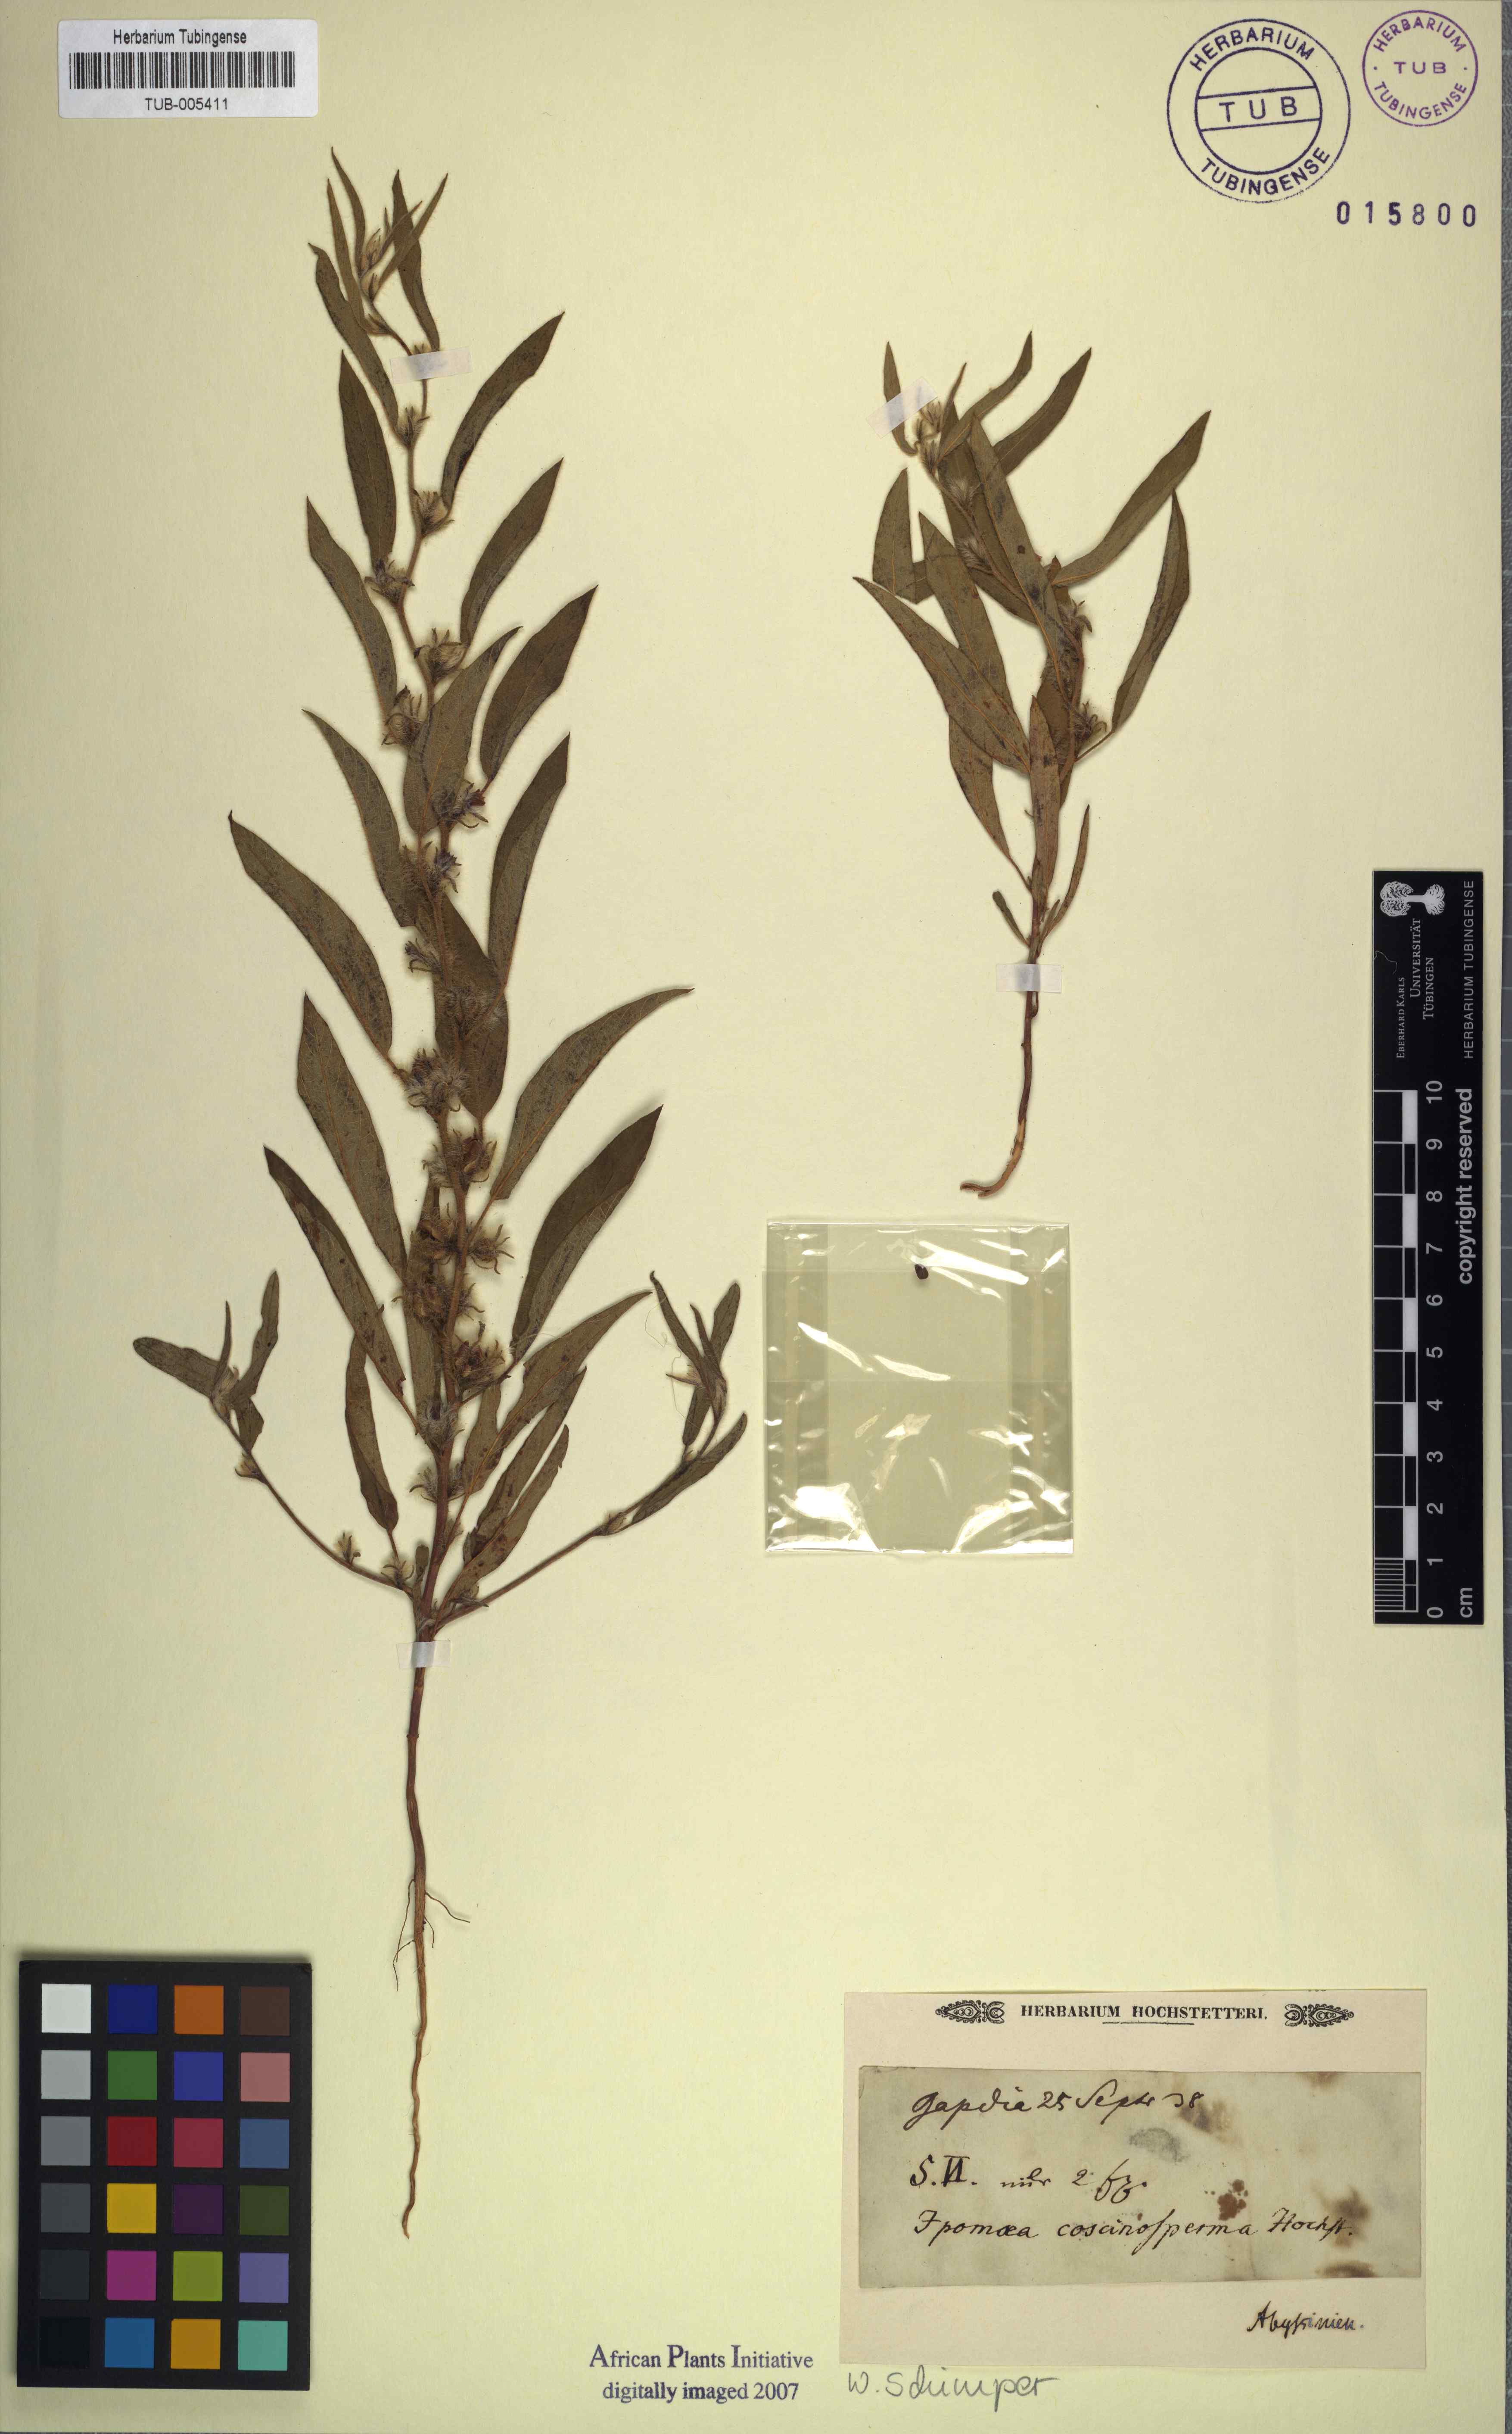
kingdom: Plantae
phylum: Tracheophyta
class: Magnoliopsida
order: Solanales
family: Convolvulaceae
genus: Ipomoea
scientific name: Ipomoea coscinosperma
